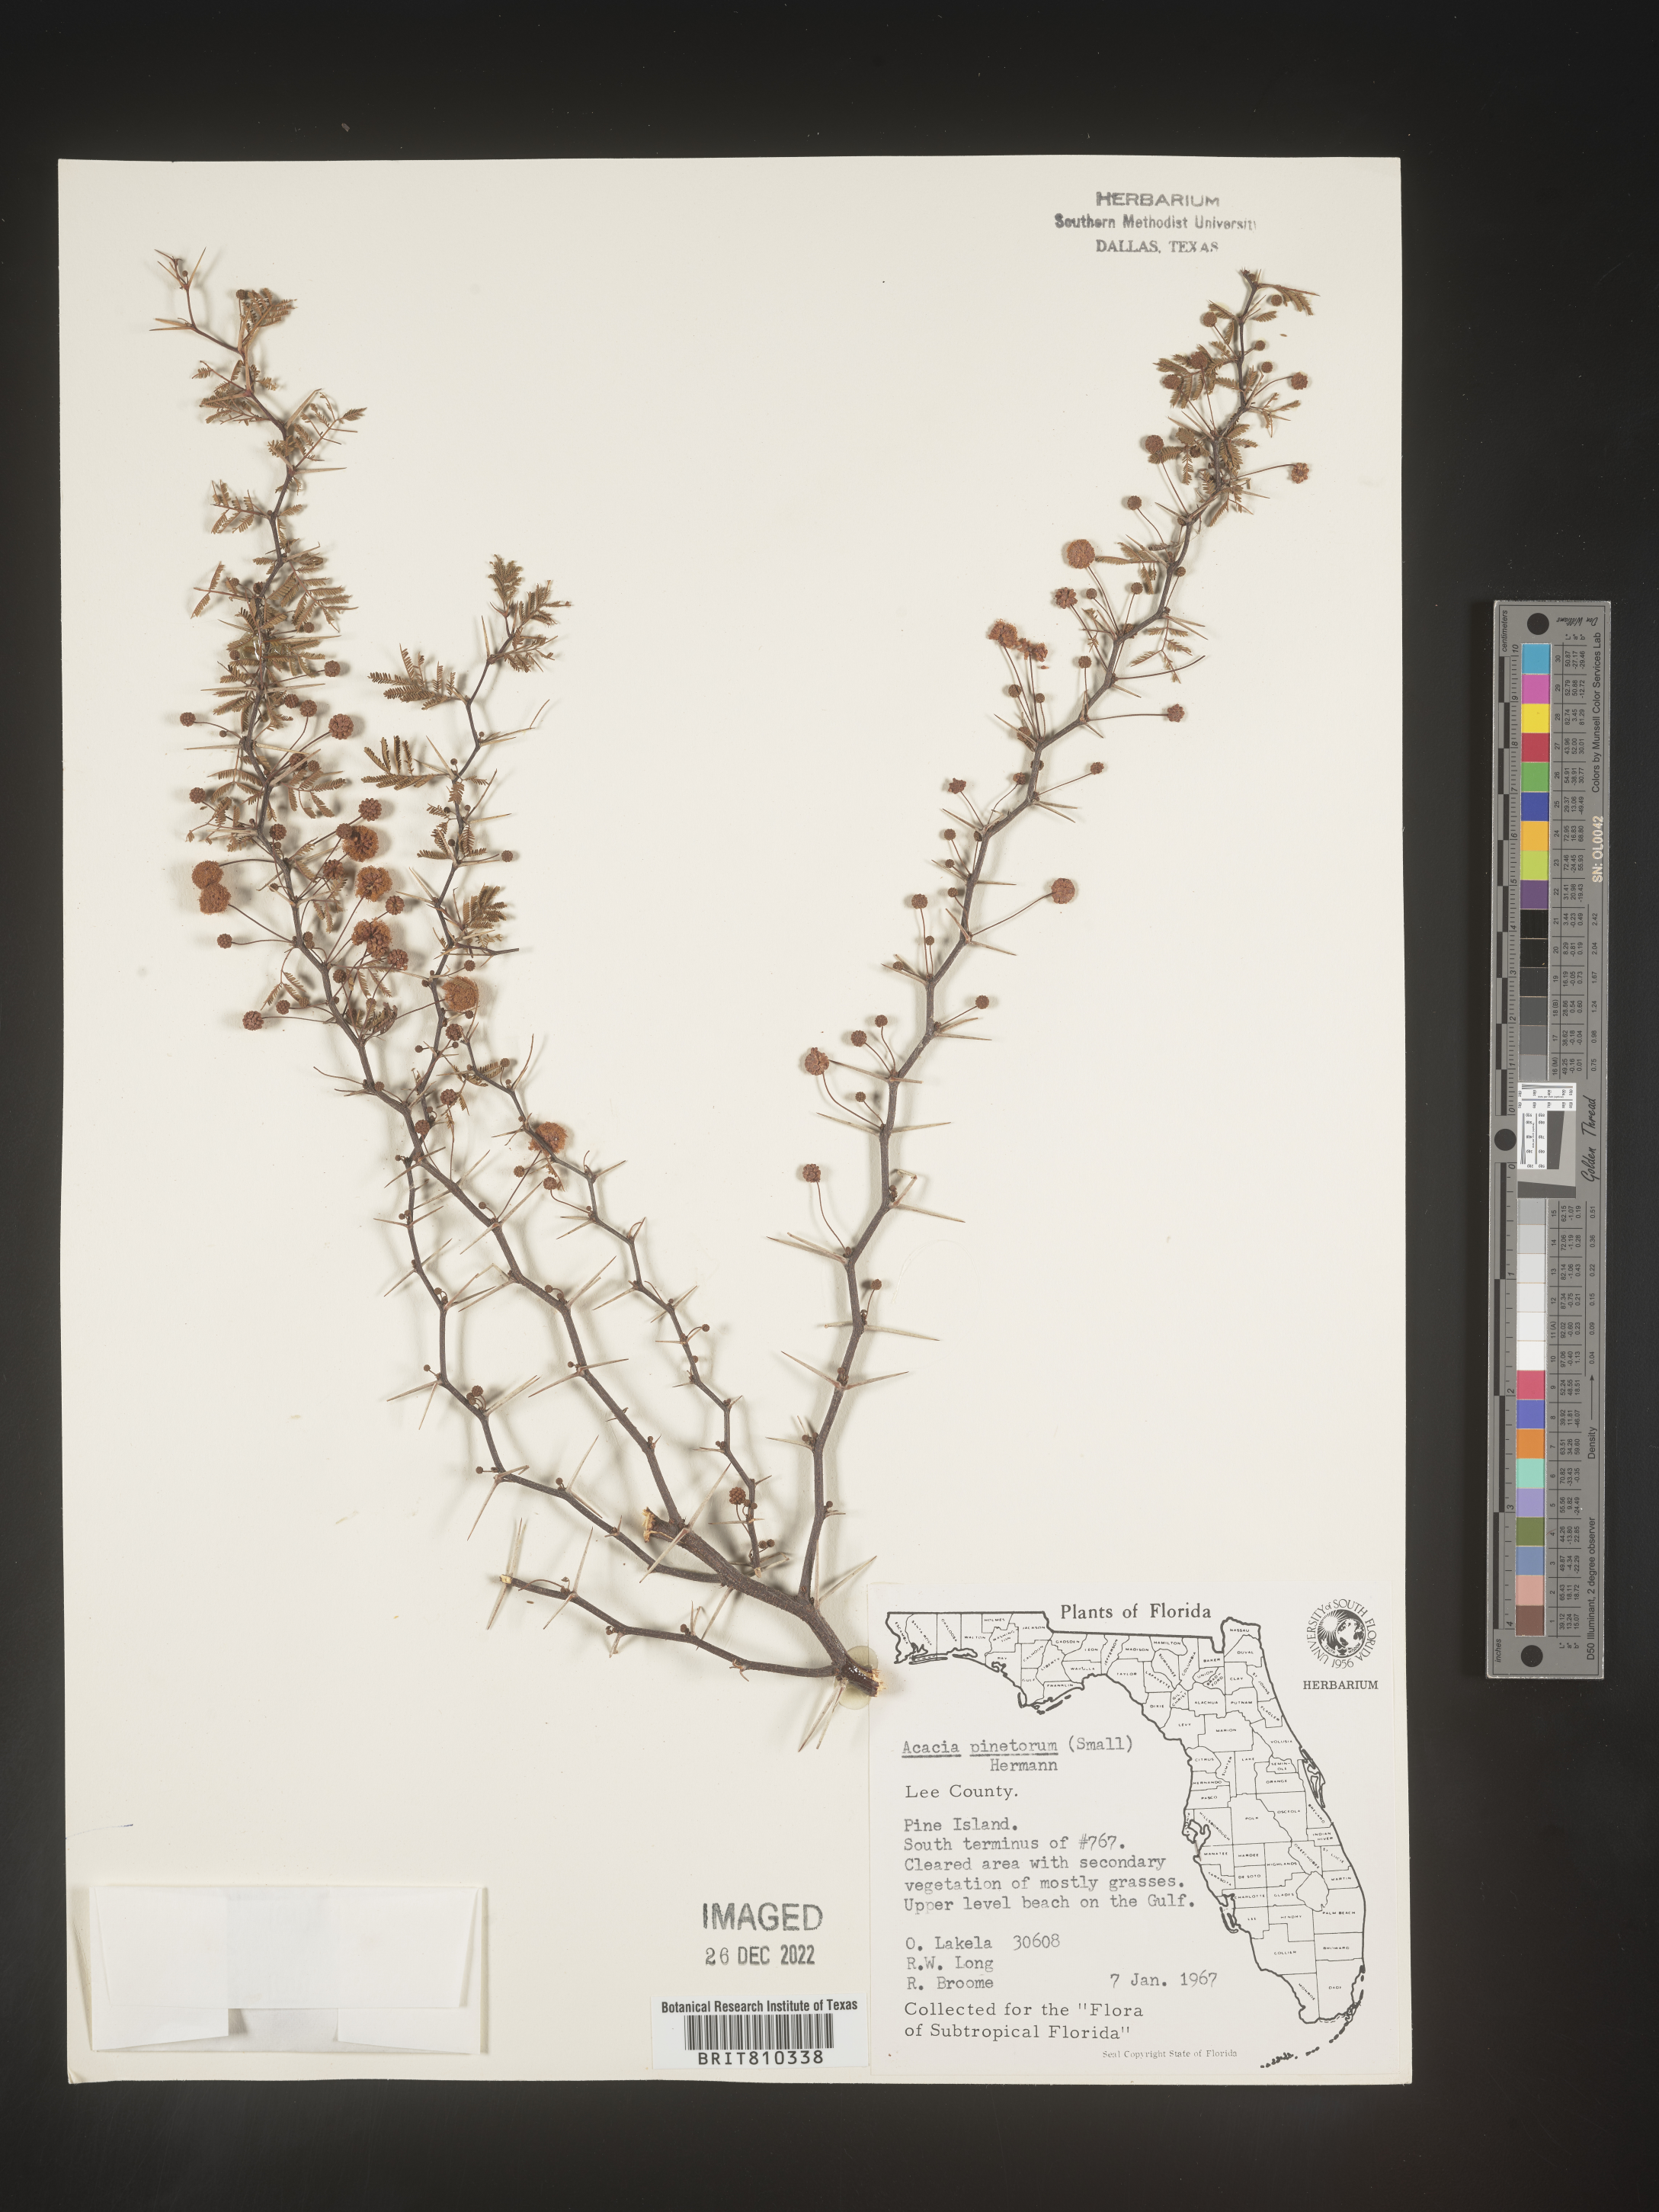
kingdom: Plantae
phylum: Tracheophyta
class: Magnoliopsida
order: Fabales
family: Fabaceae
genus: Acacia
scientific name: Acacia
